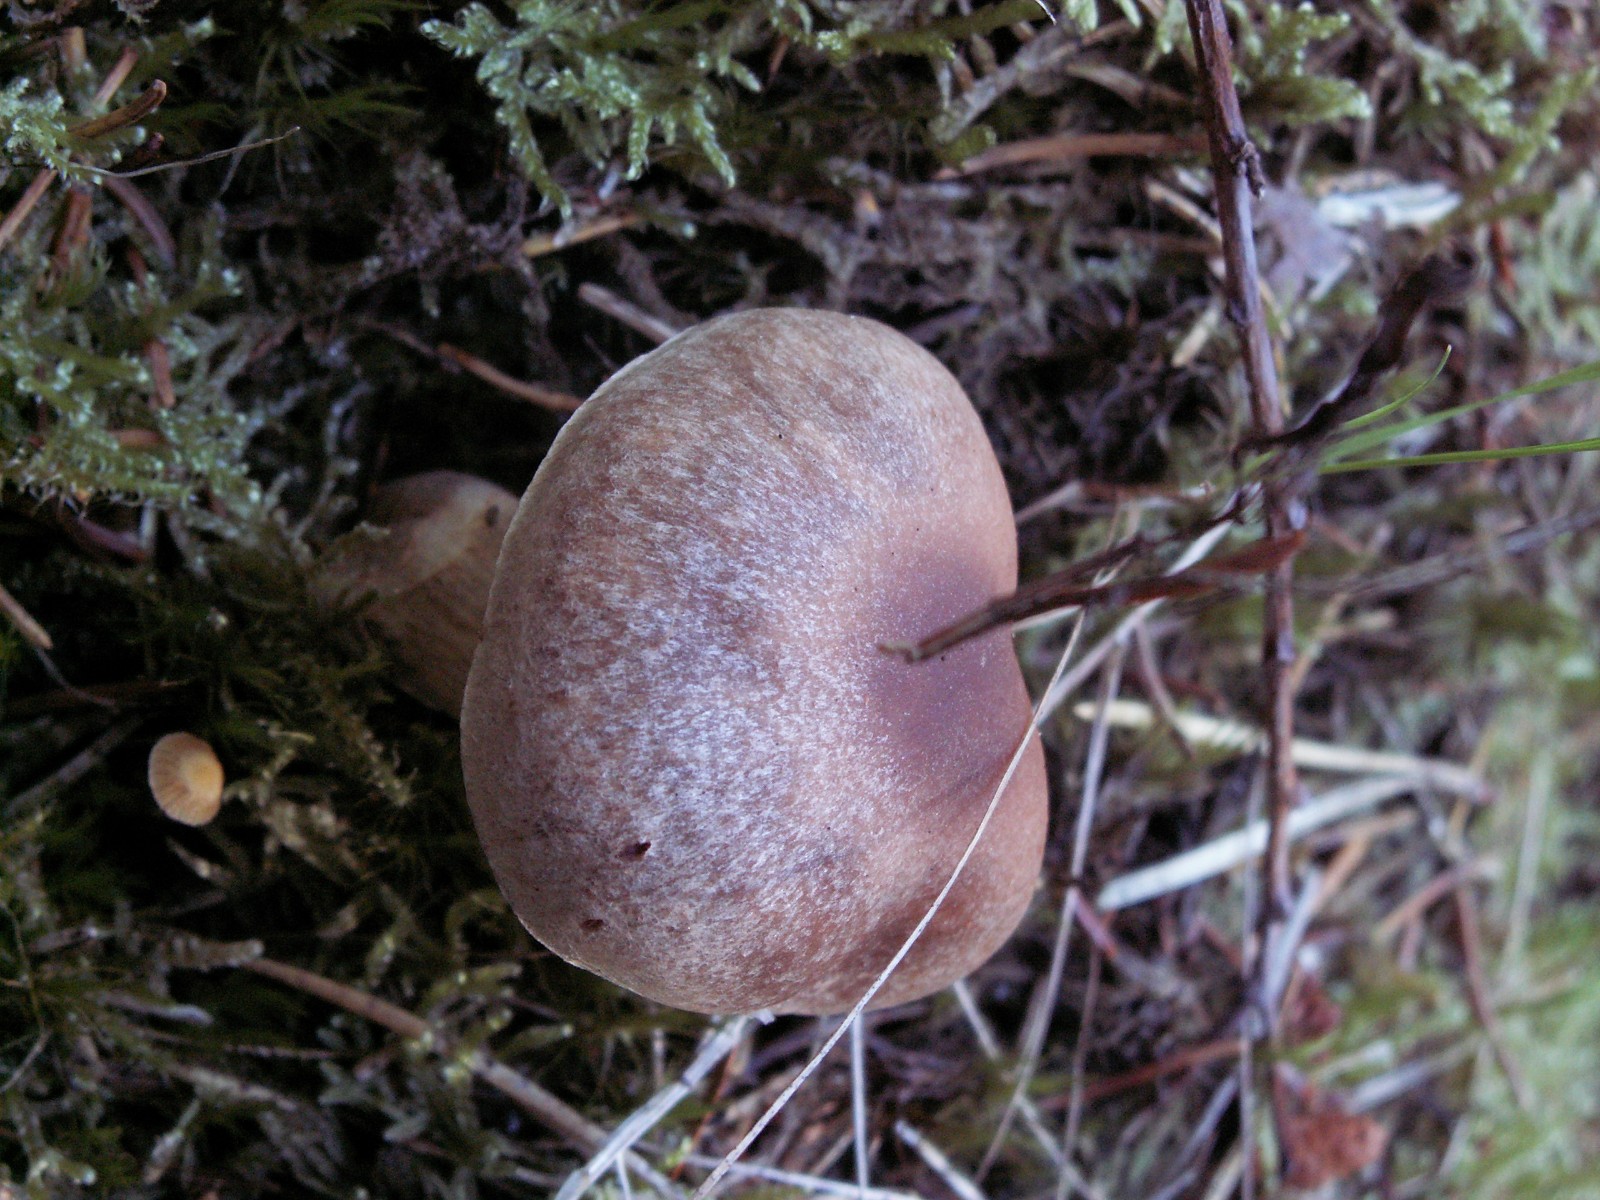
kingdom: Fungi
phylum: Basidiomycota
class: Agaricomycetes
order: Boletales
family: Suillaceae
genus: Suillus
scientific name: Suillus flavidus
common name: mose-slimrørhat
